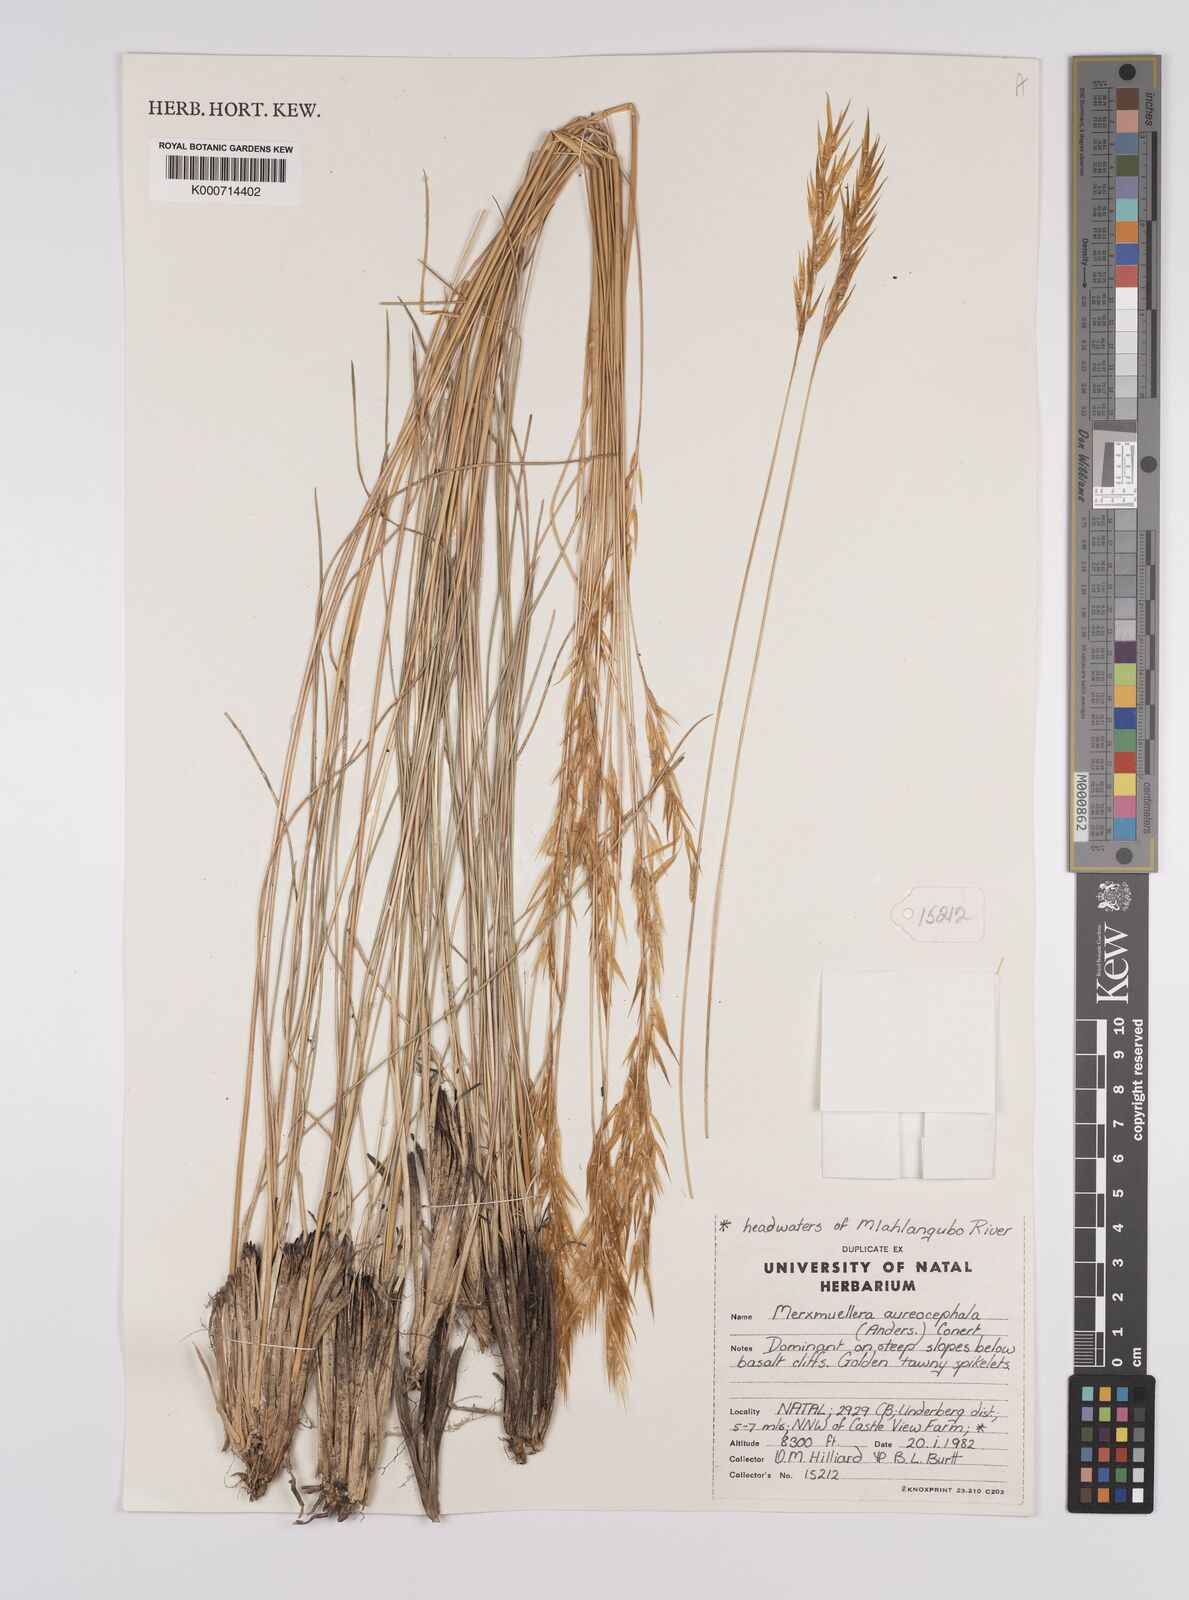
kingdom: Plantae
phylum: Tracheophyta
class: Liliopsida
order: Poales
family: Poaceae
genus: Rytidosperma
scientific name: Rytidosperma
